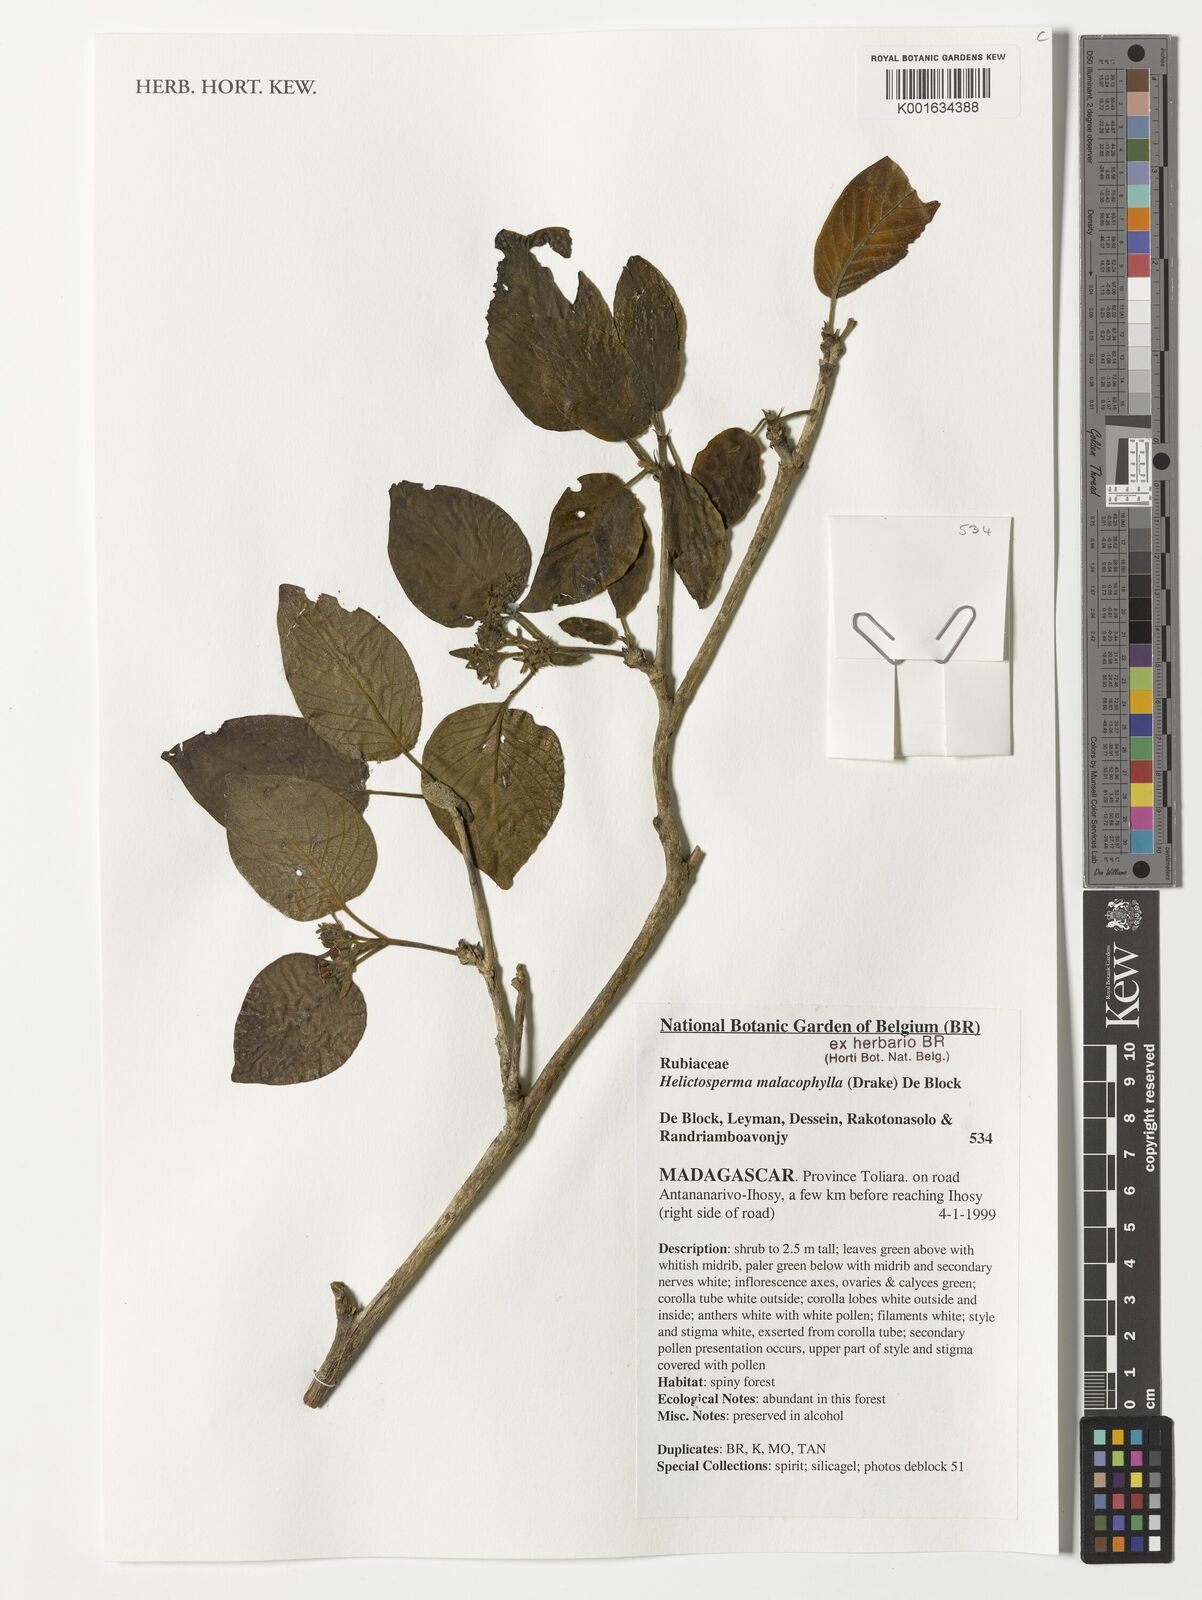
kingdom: Plantae
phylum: Tracheophyta
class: Magnoliopsida
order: Gentianales
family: Rubiaceae
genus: Helictosperma
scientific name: Helictosperma malacophyllum
